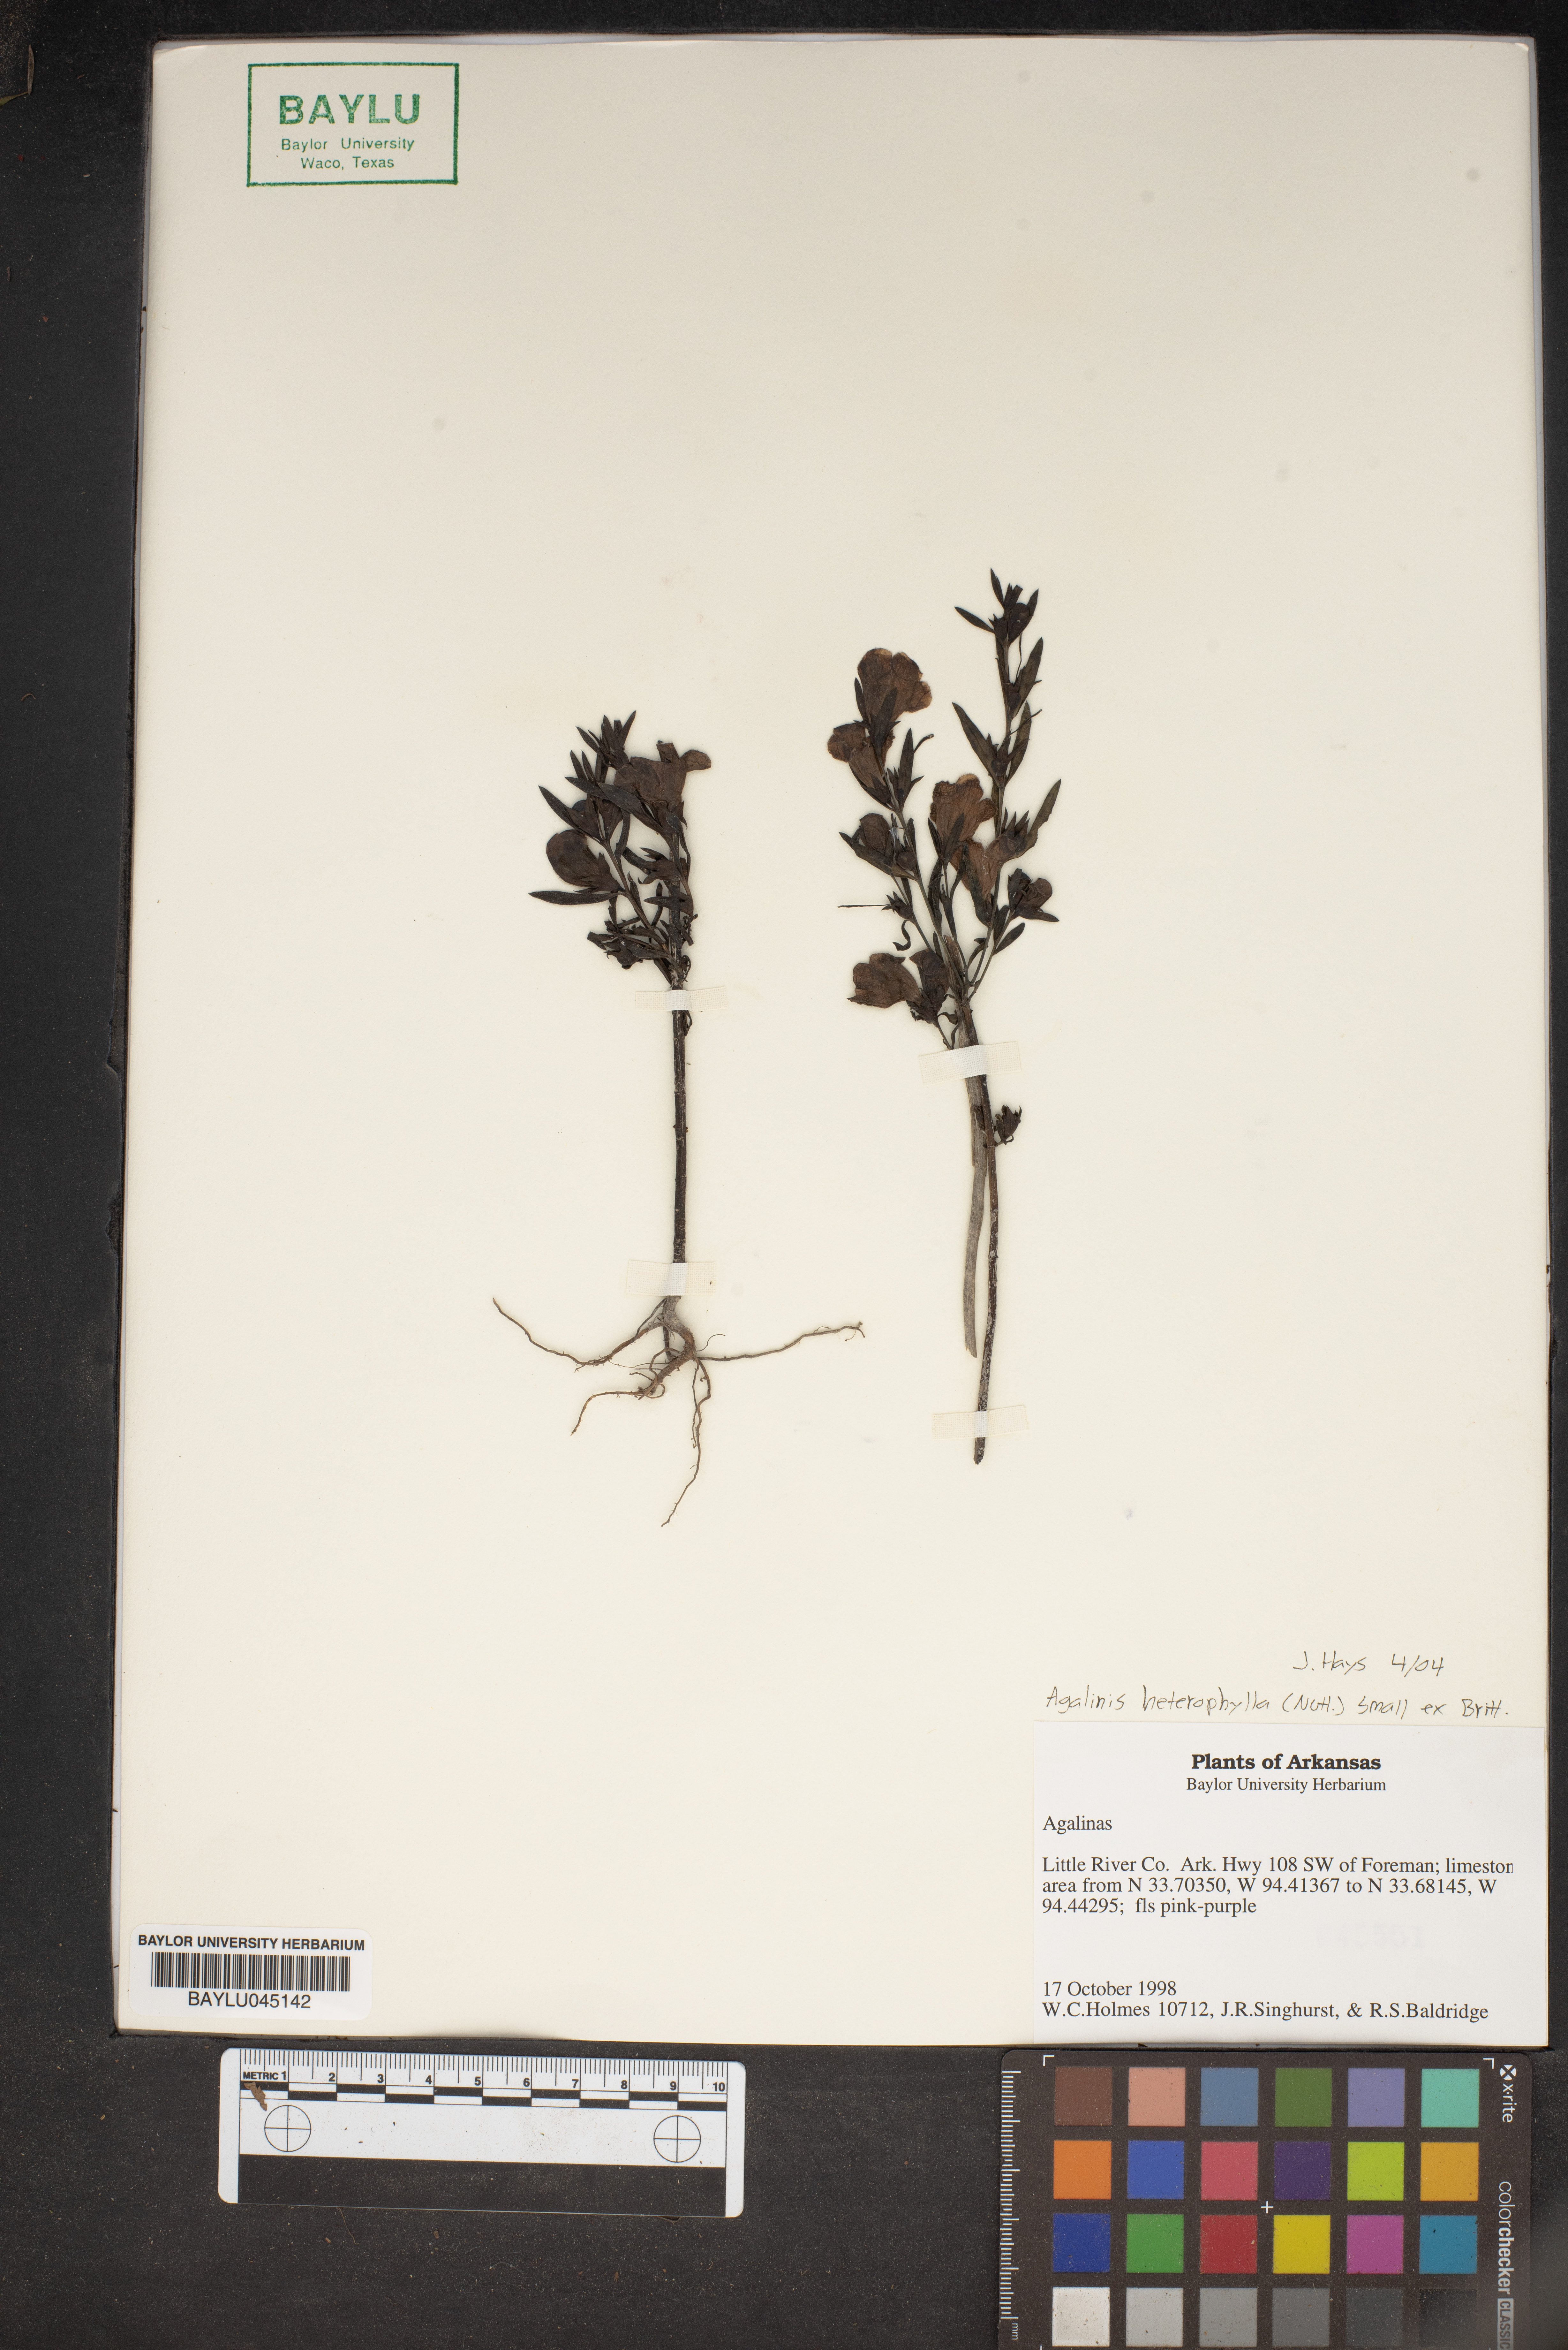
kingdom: Plantae
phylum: Tracheophyta
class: Magnoliopsida
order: Lamiales
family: Orobanchaceae
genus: Agalinis
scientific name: Agalinis heterophylla
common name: Prairie agalinis
